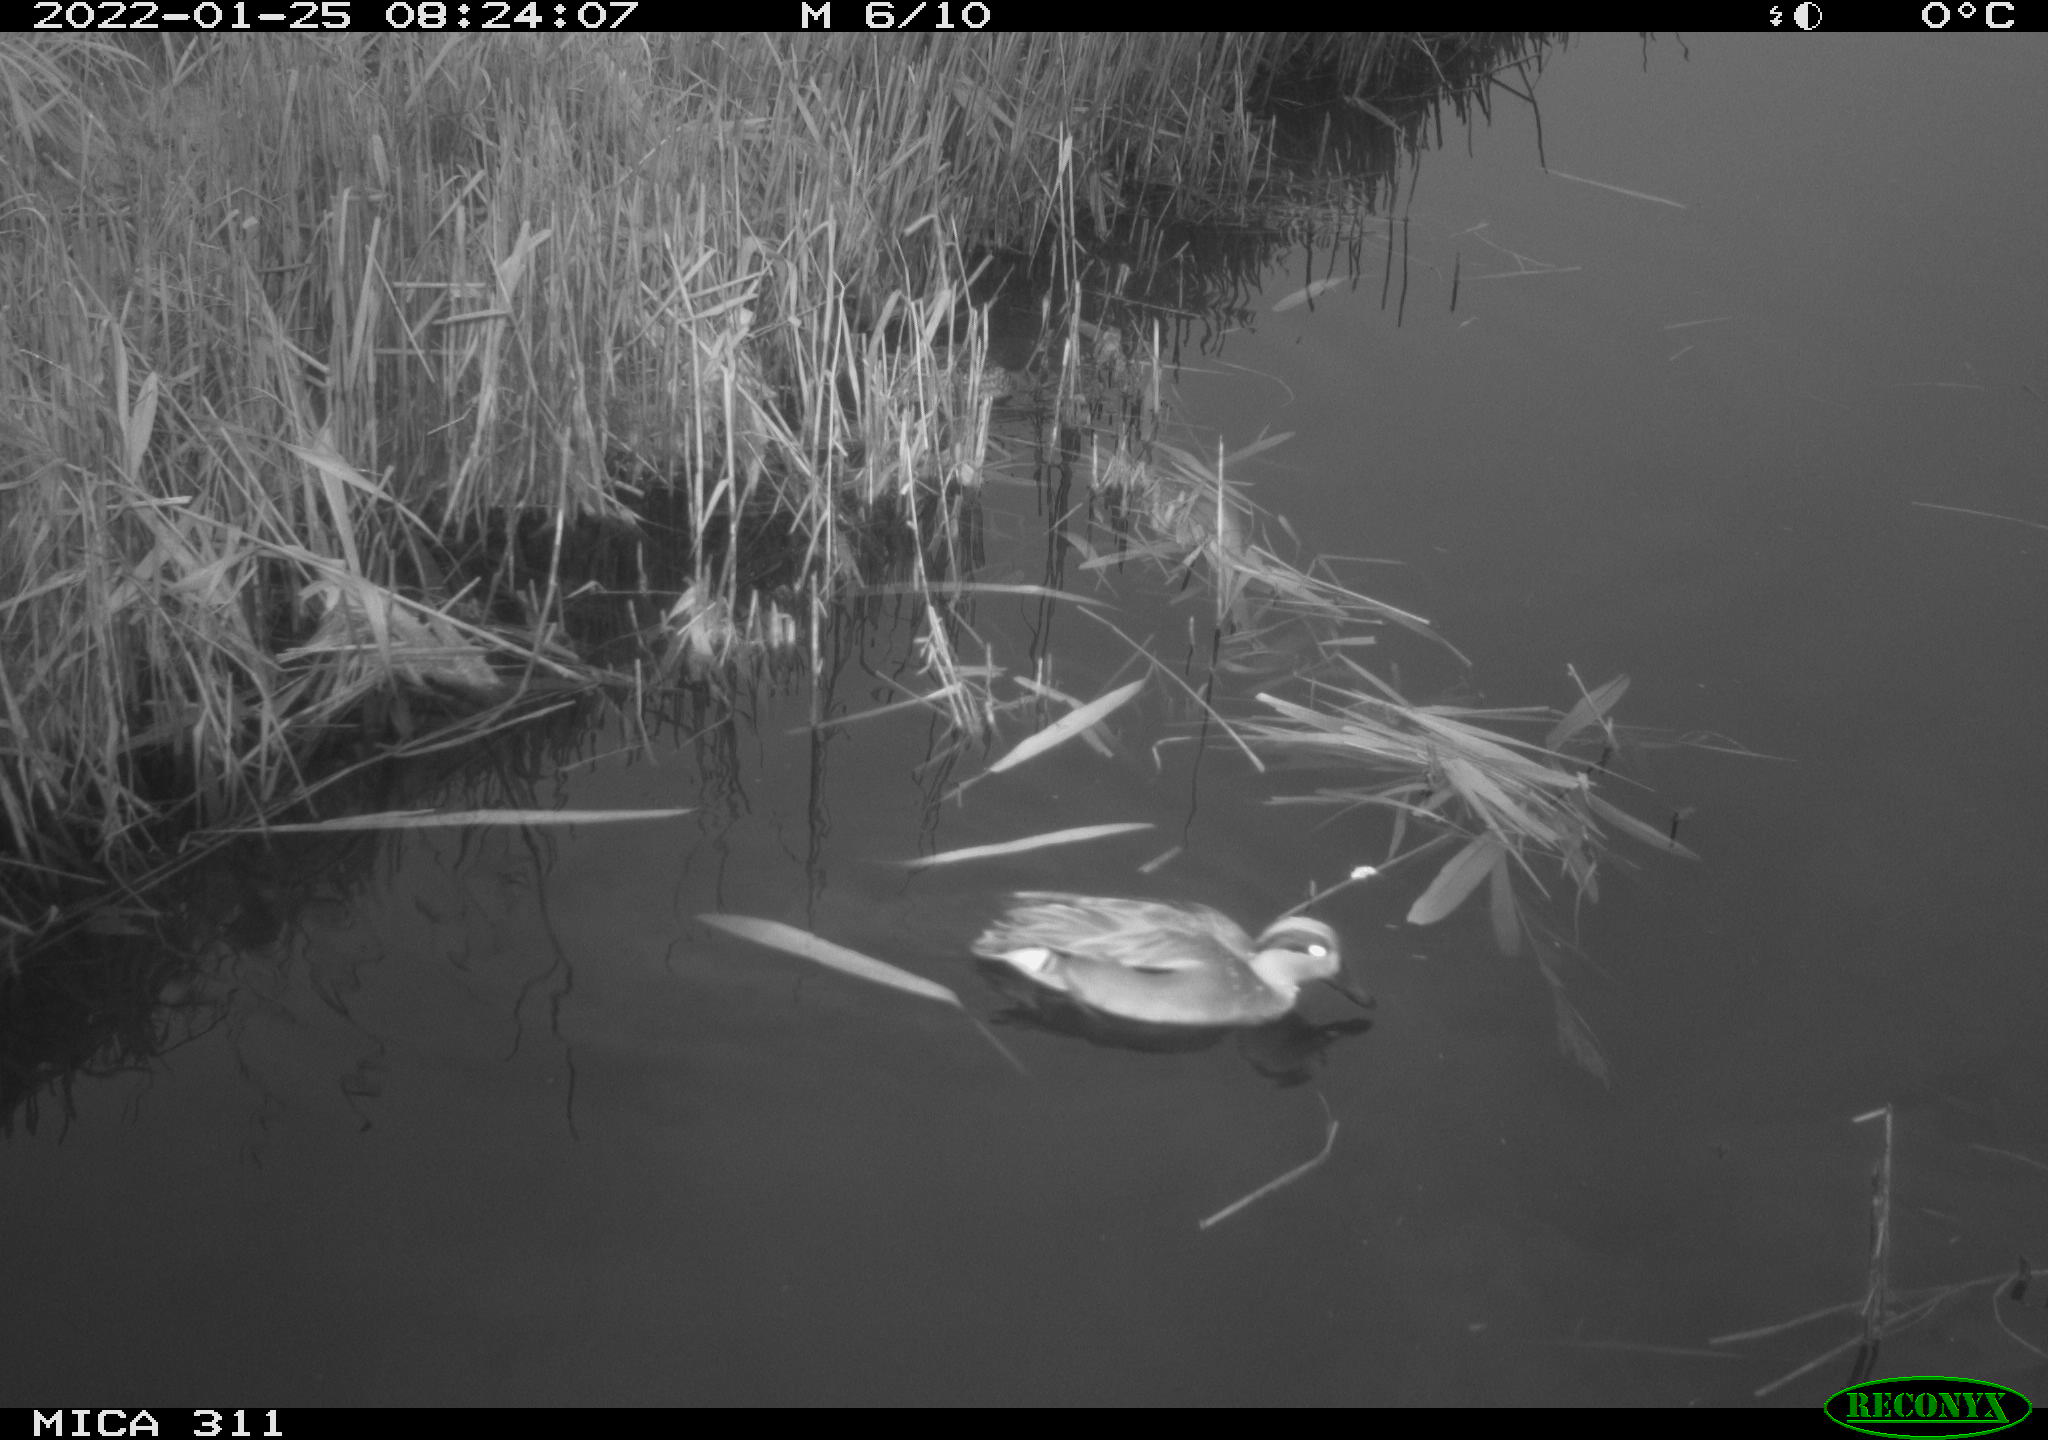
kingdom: Animalia
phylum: Chordata
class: Aves
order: Anseriformes
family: Anatidae
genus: Anas
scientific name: Anas
